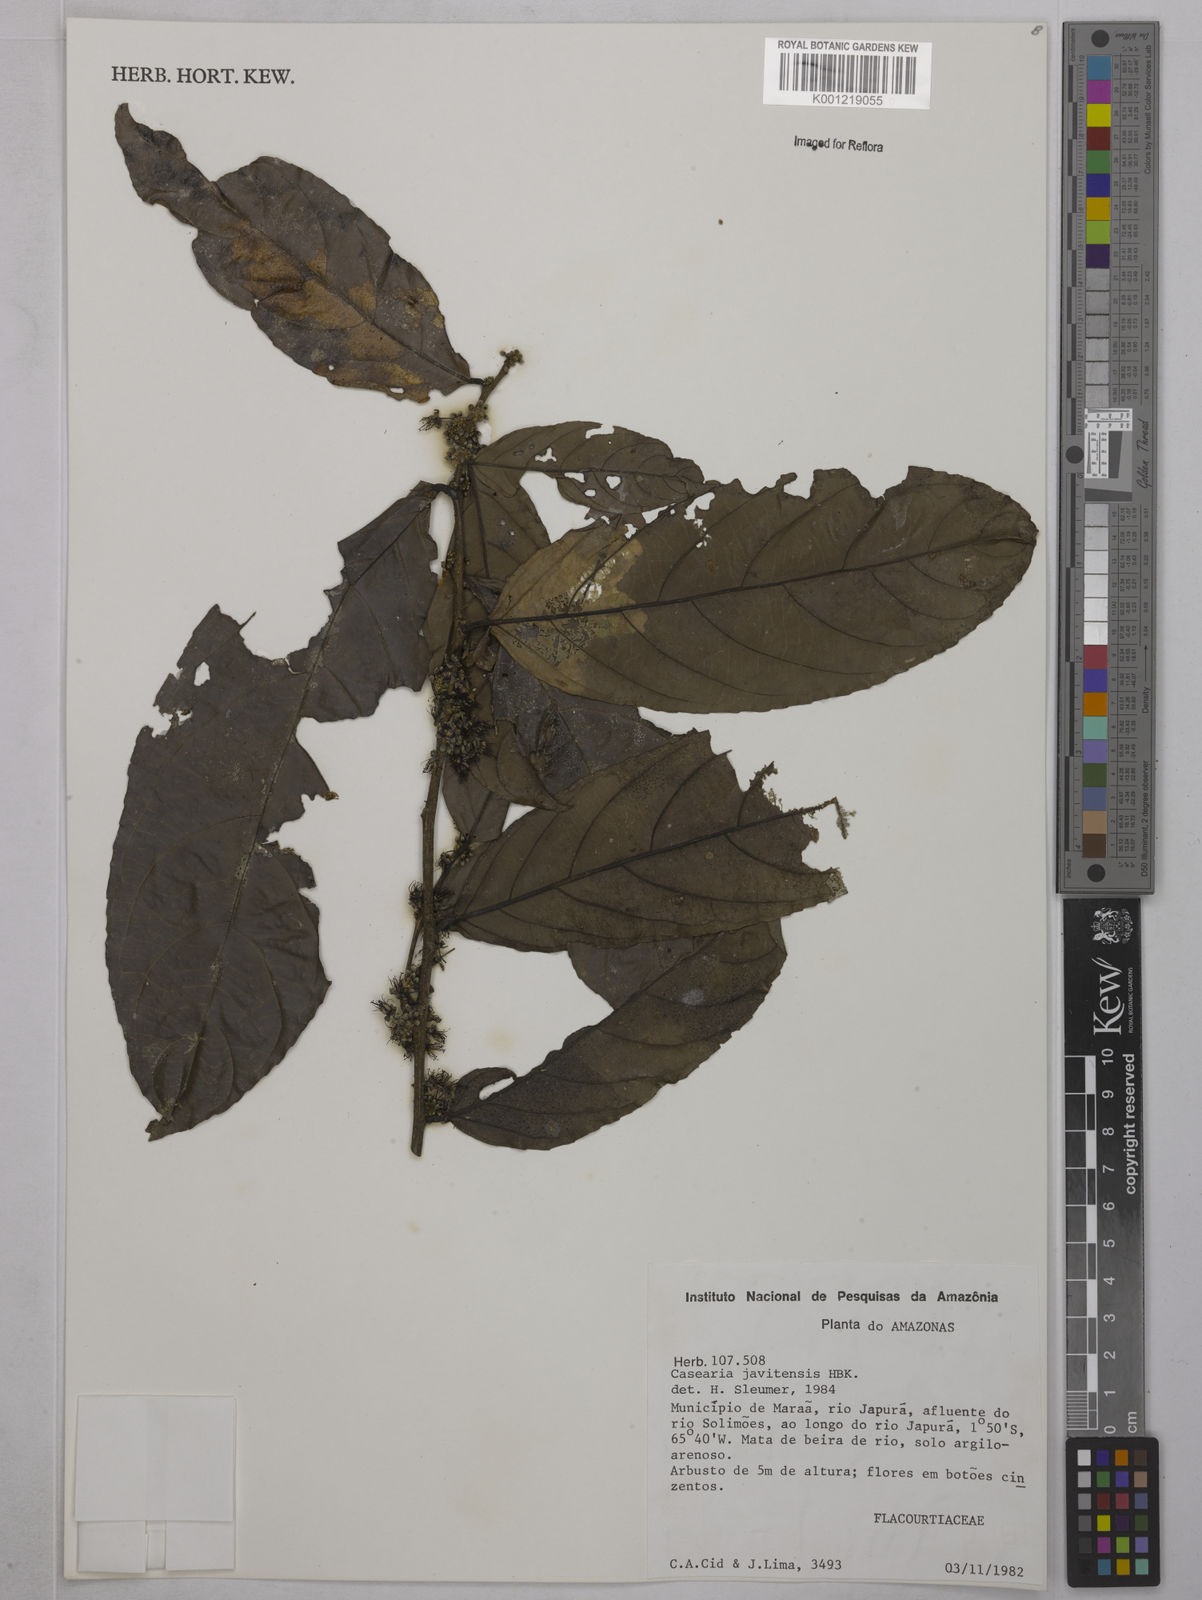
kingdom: Plantae
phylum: Tracheophyta
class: Magnoliopsida
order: Malpighiales
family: Salicaceae
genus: Piparea
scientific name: Piparea multiflora
